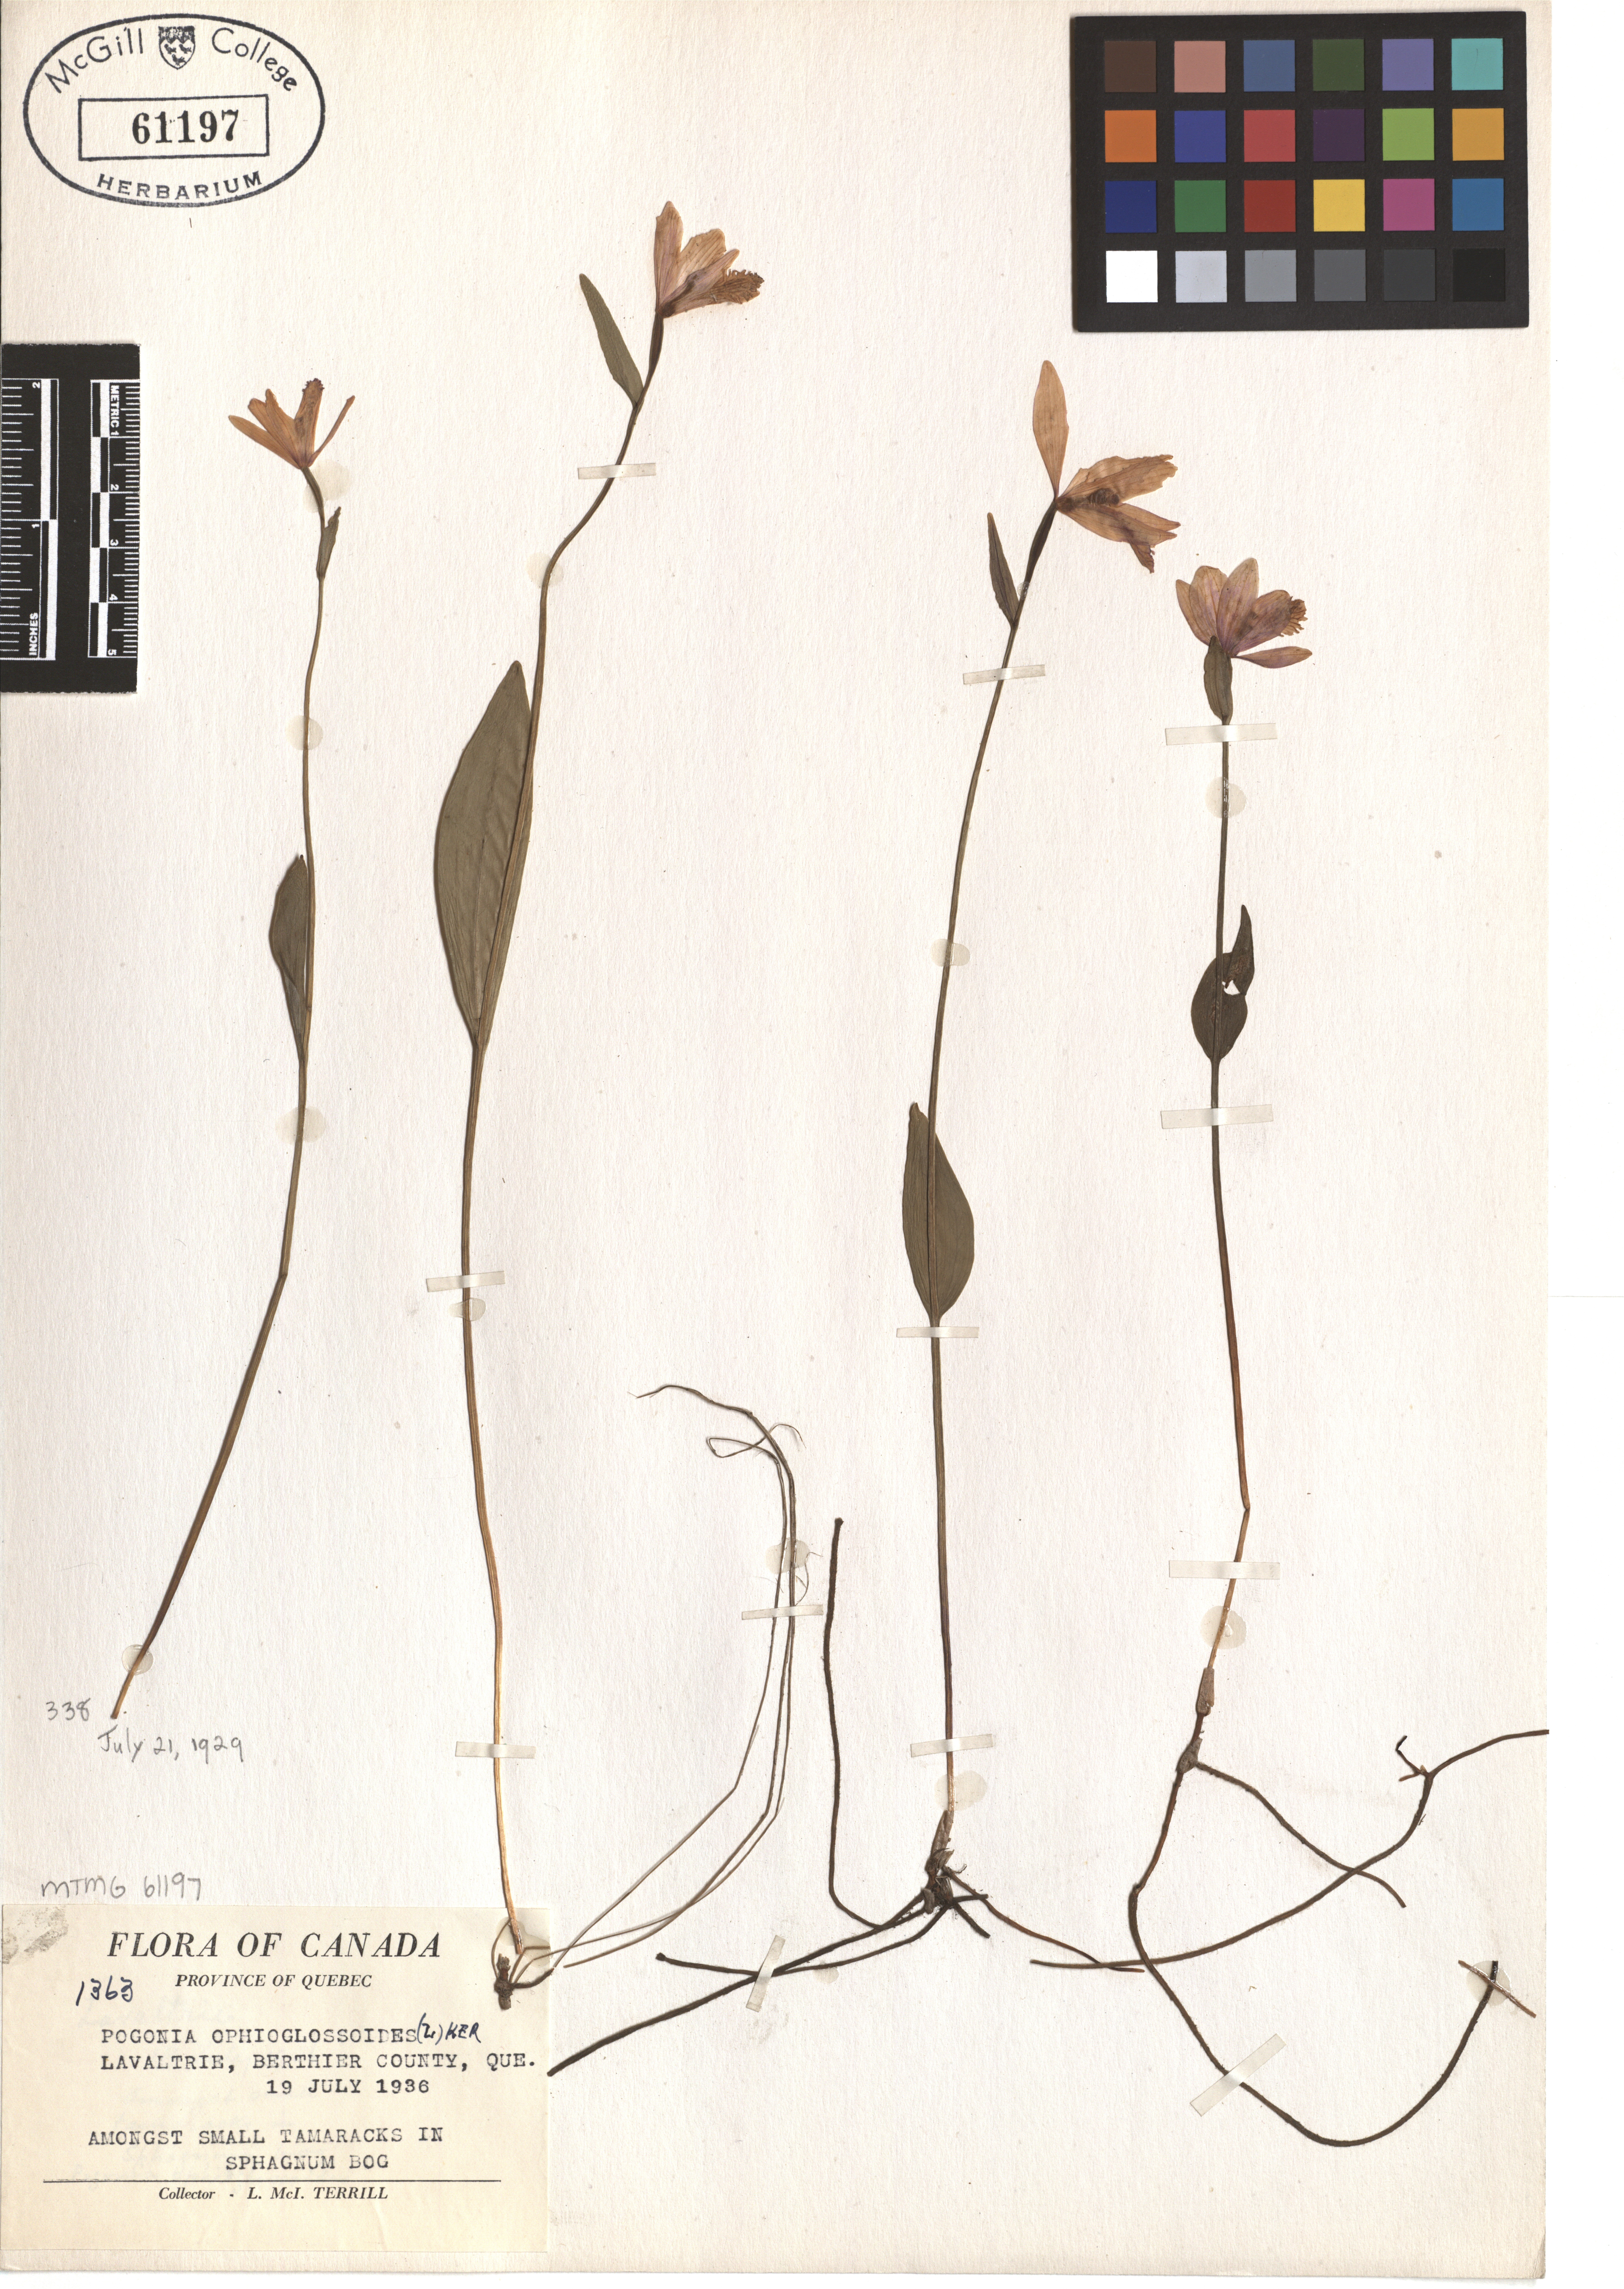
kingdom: Plantae
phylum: Tracheophyta
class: Liliopsida
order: Asparagales
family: Orchidaceae
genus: Pogonia
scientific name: Pogonia ophioglossoides
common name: Rose pogonia
